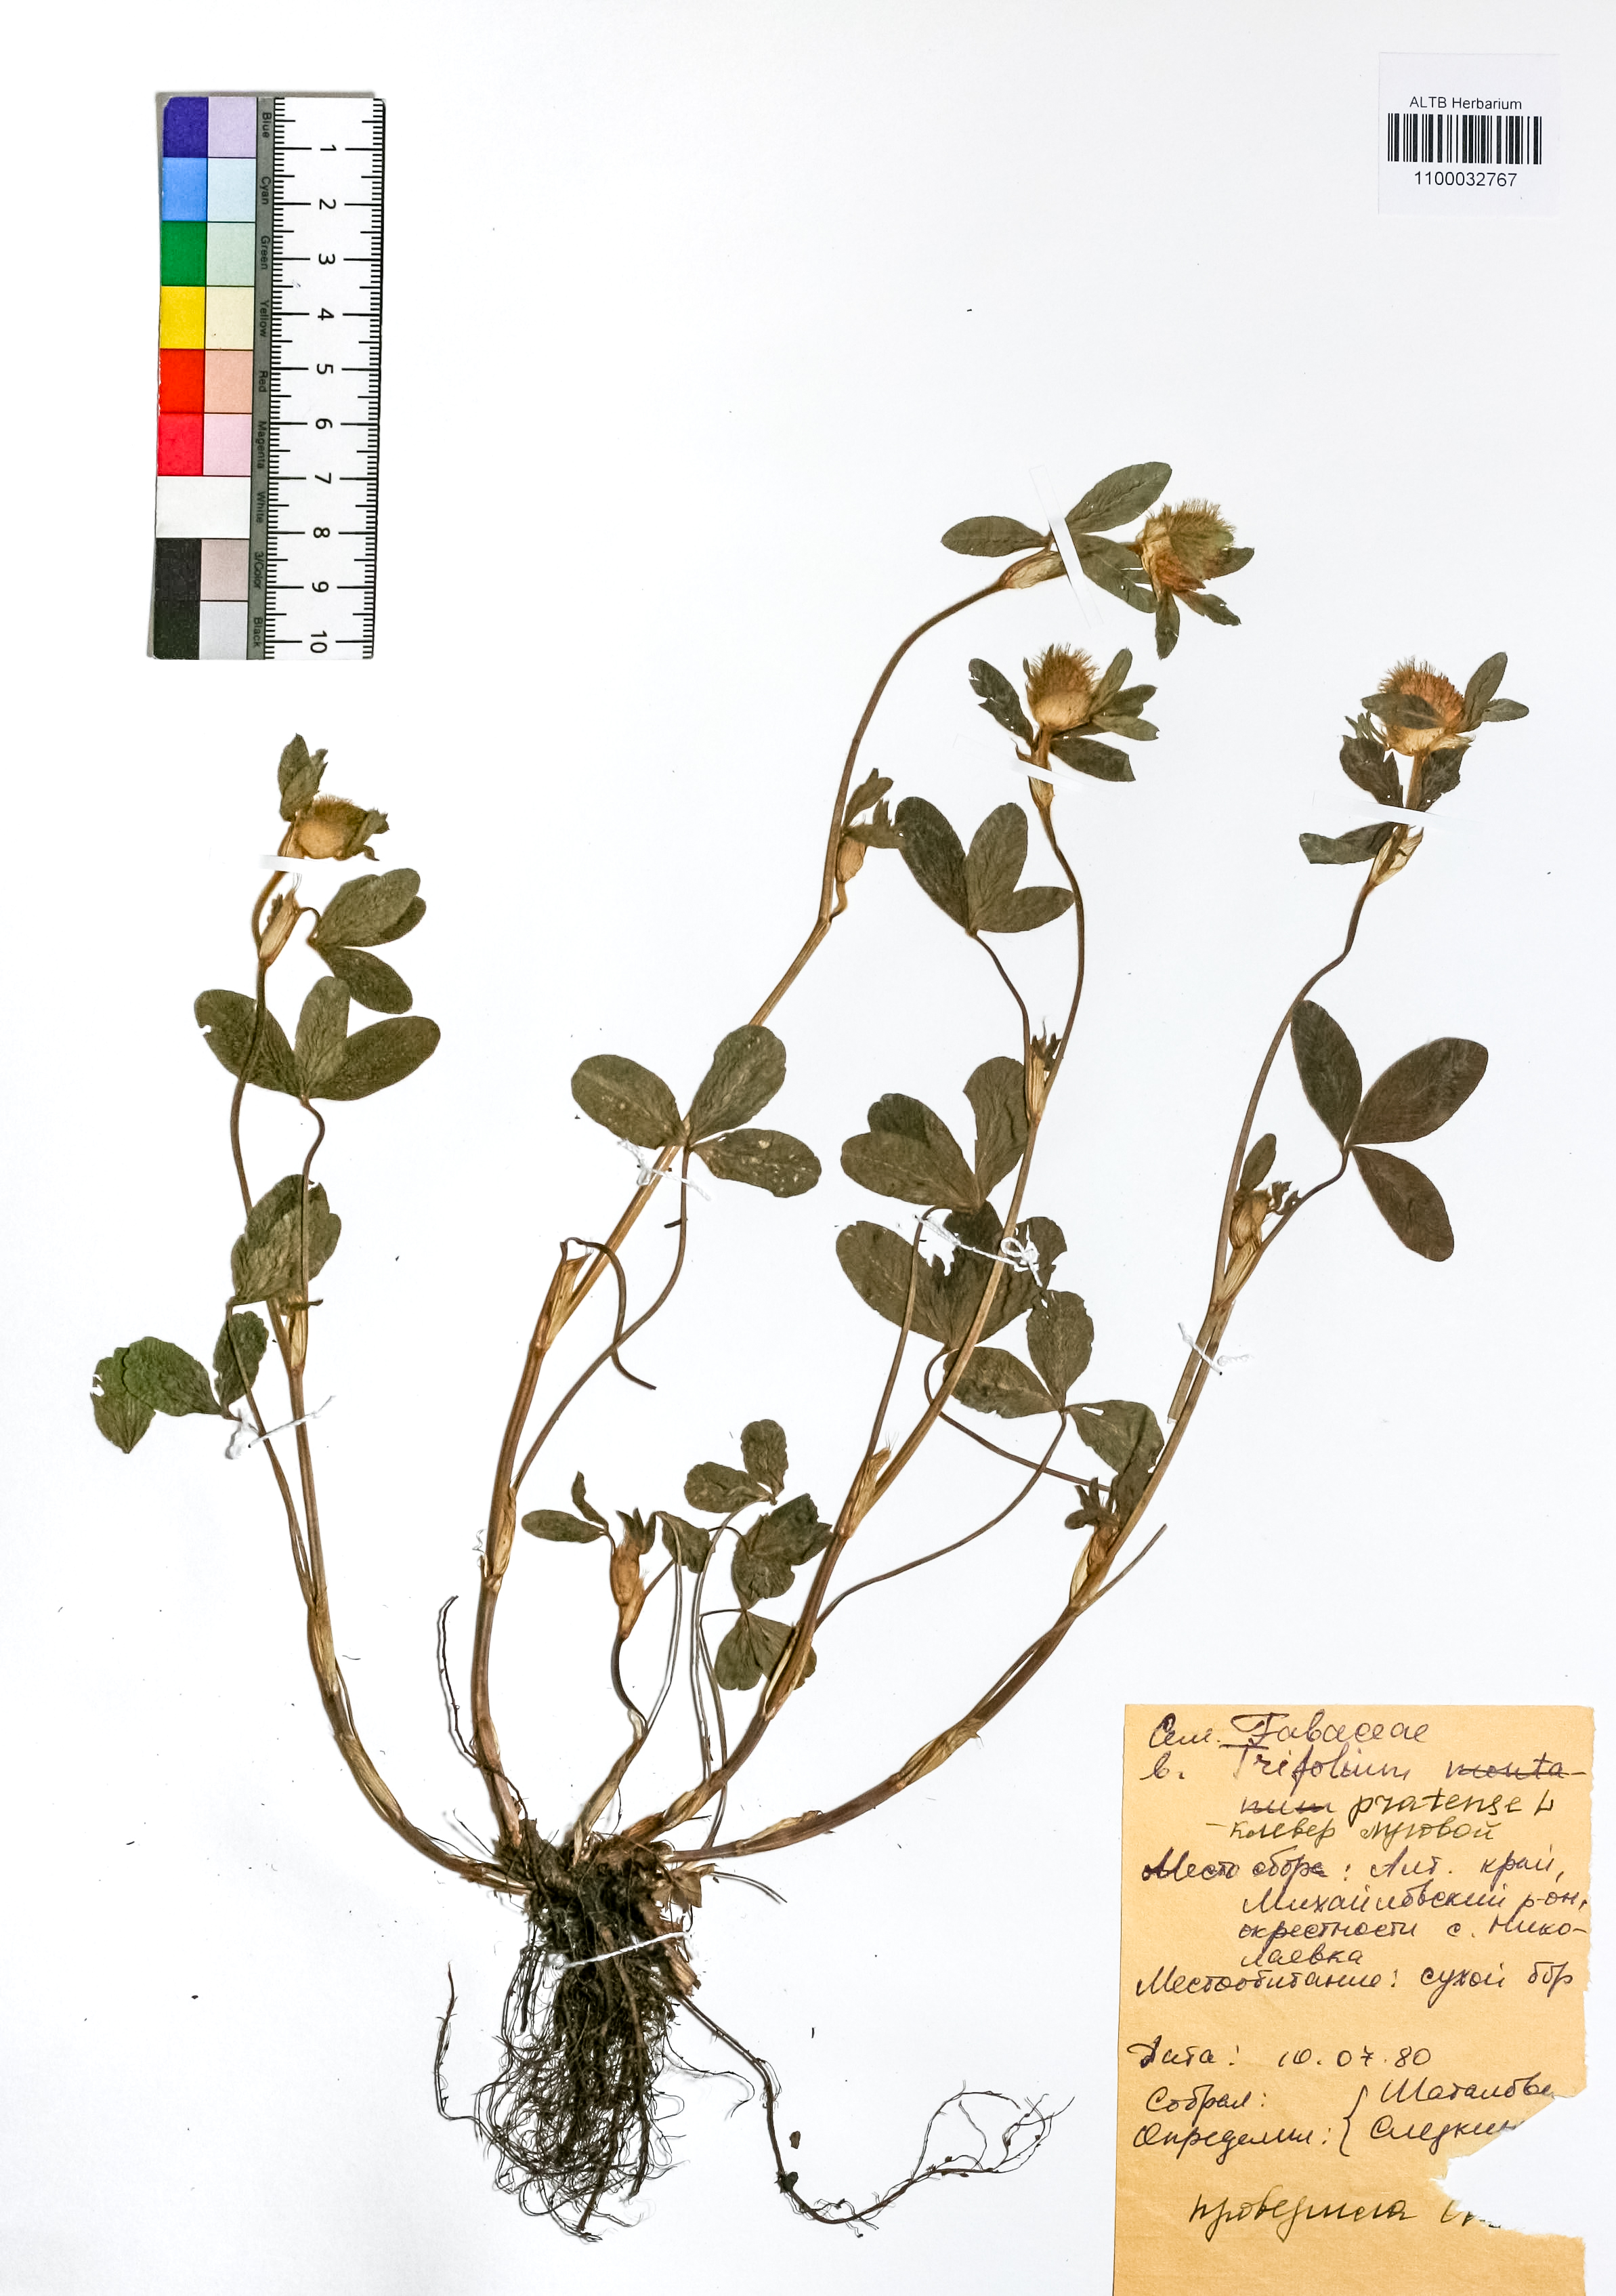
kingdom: Plantae
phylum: Tracheophyta
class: Magnoliopsida
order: Fabales
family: Fabaceae
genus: Trifolium
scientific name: Trifolium pratense
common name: Red clover
